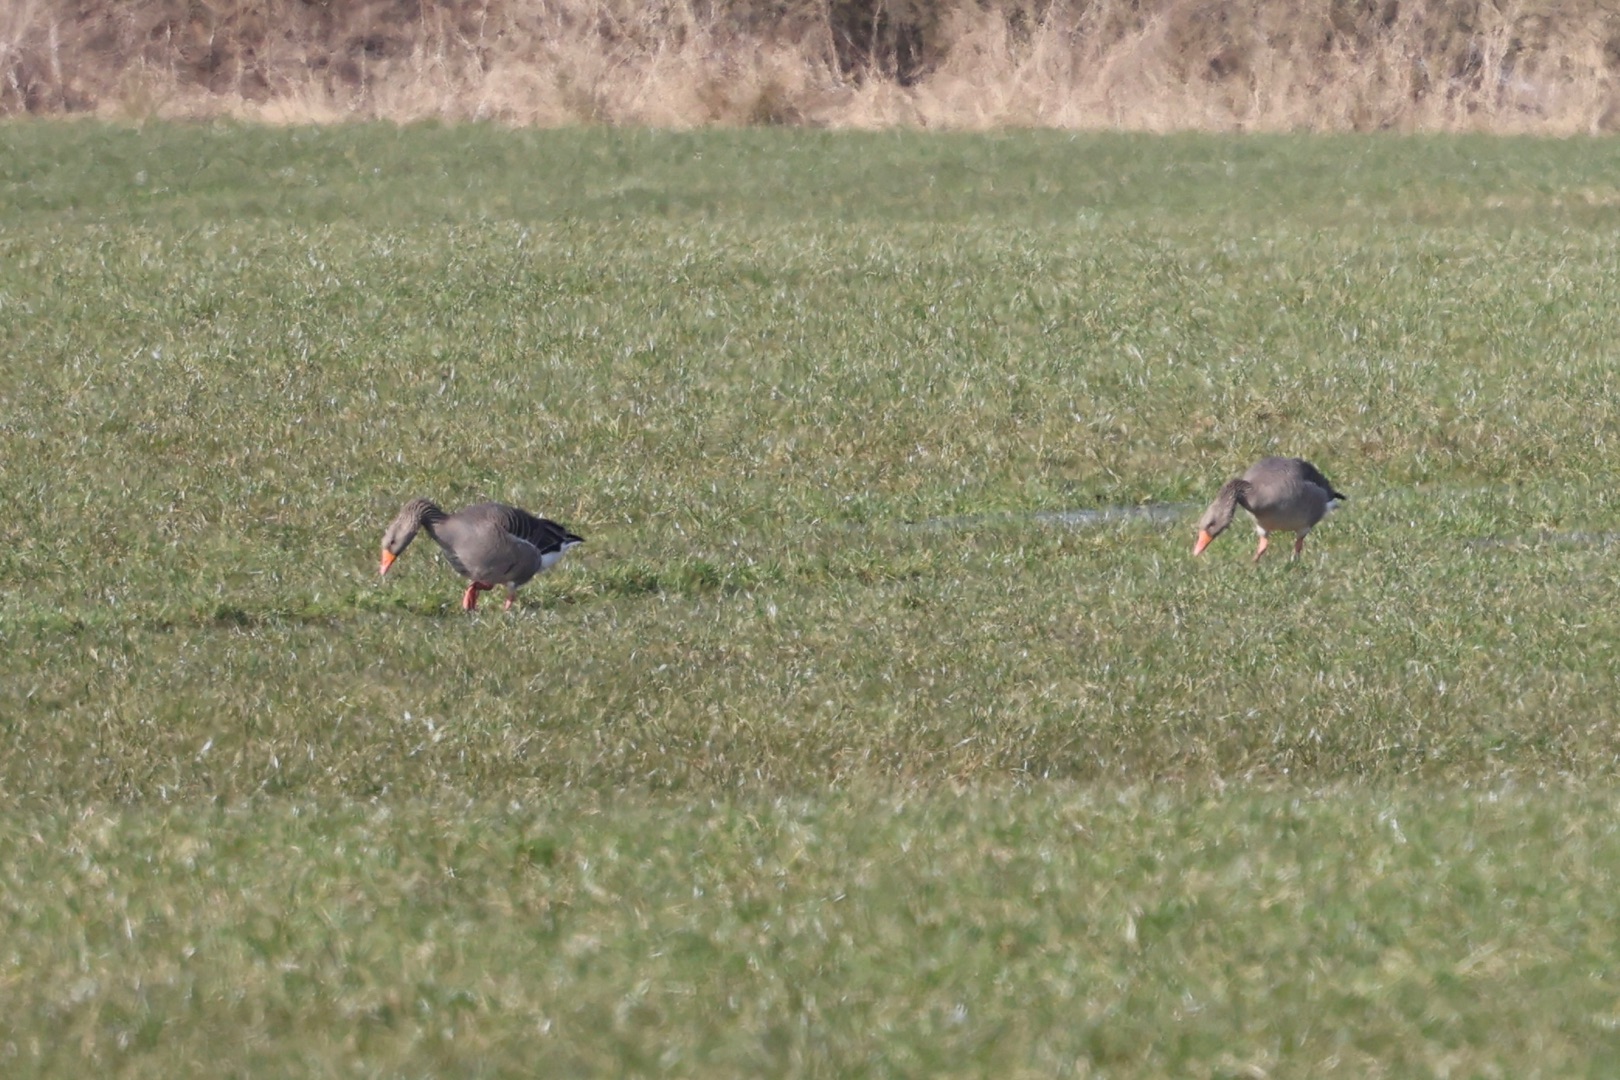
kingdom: Animalia
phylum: Chordata
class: Aves
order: Anseriformes
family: Anatidae
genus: Anser
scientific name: Anser anser
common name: Grågås
